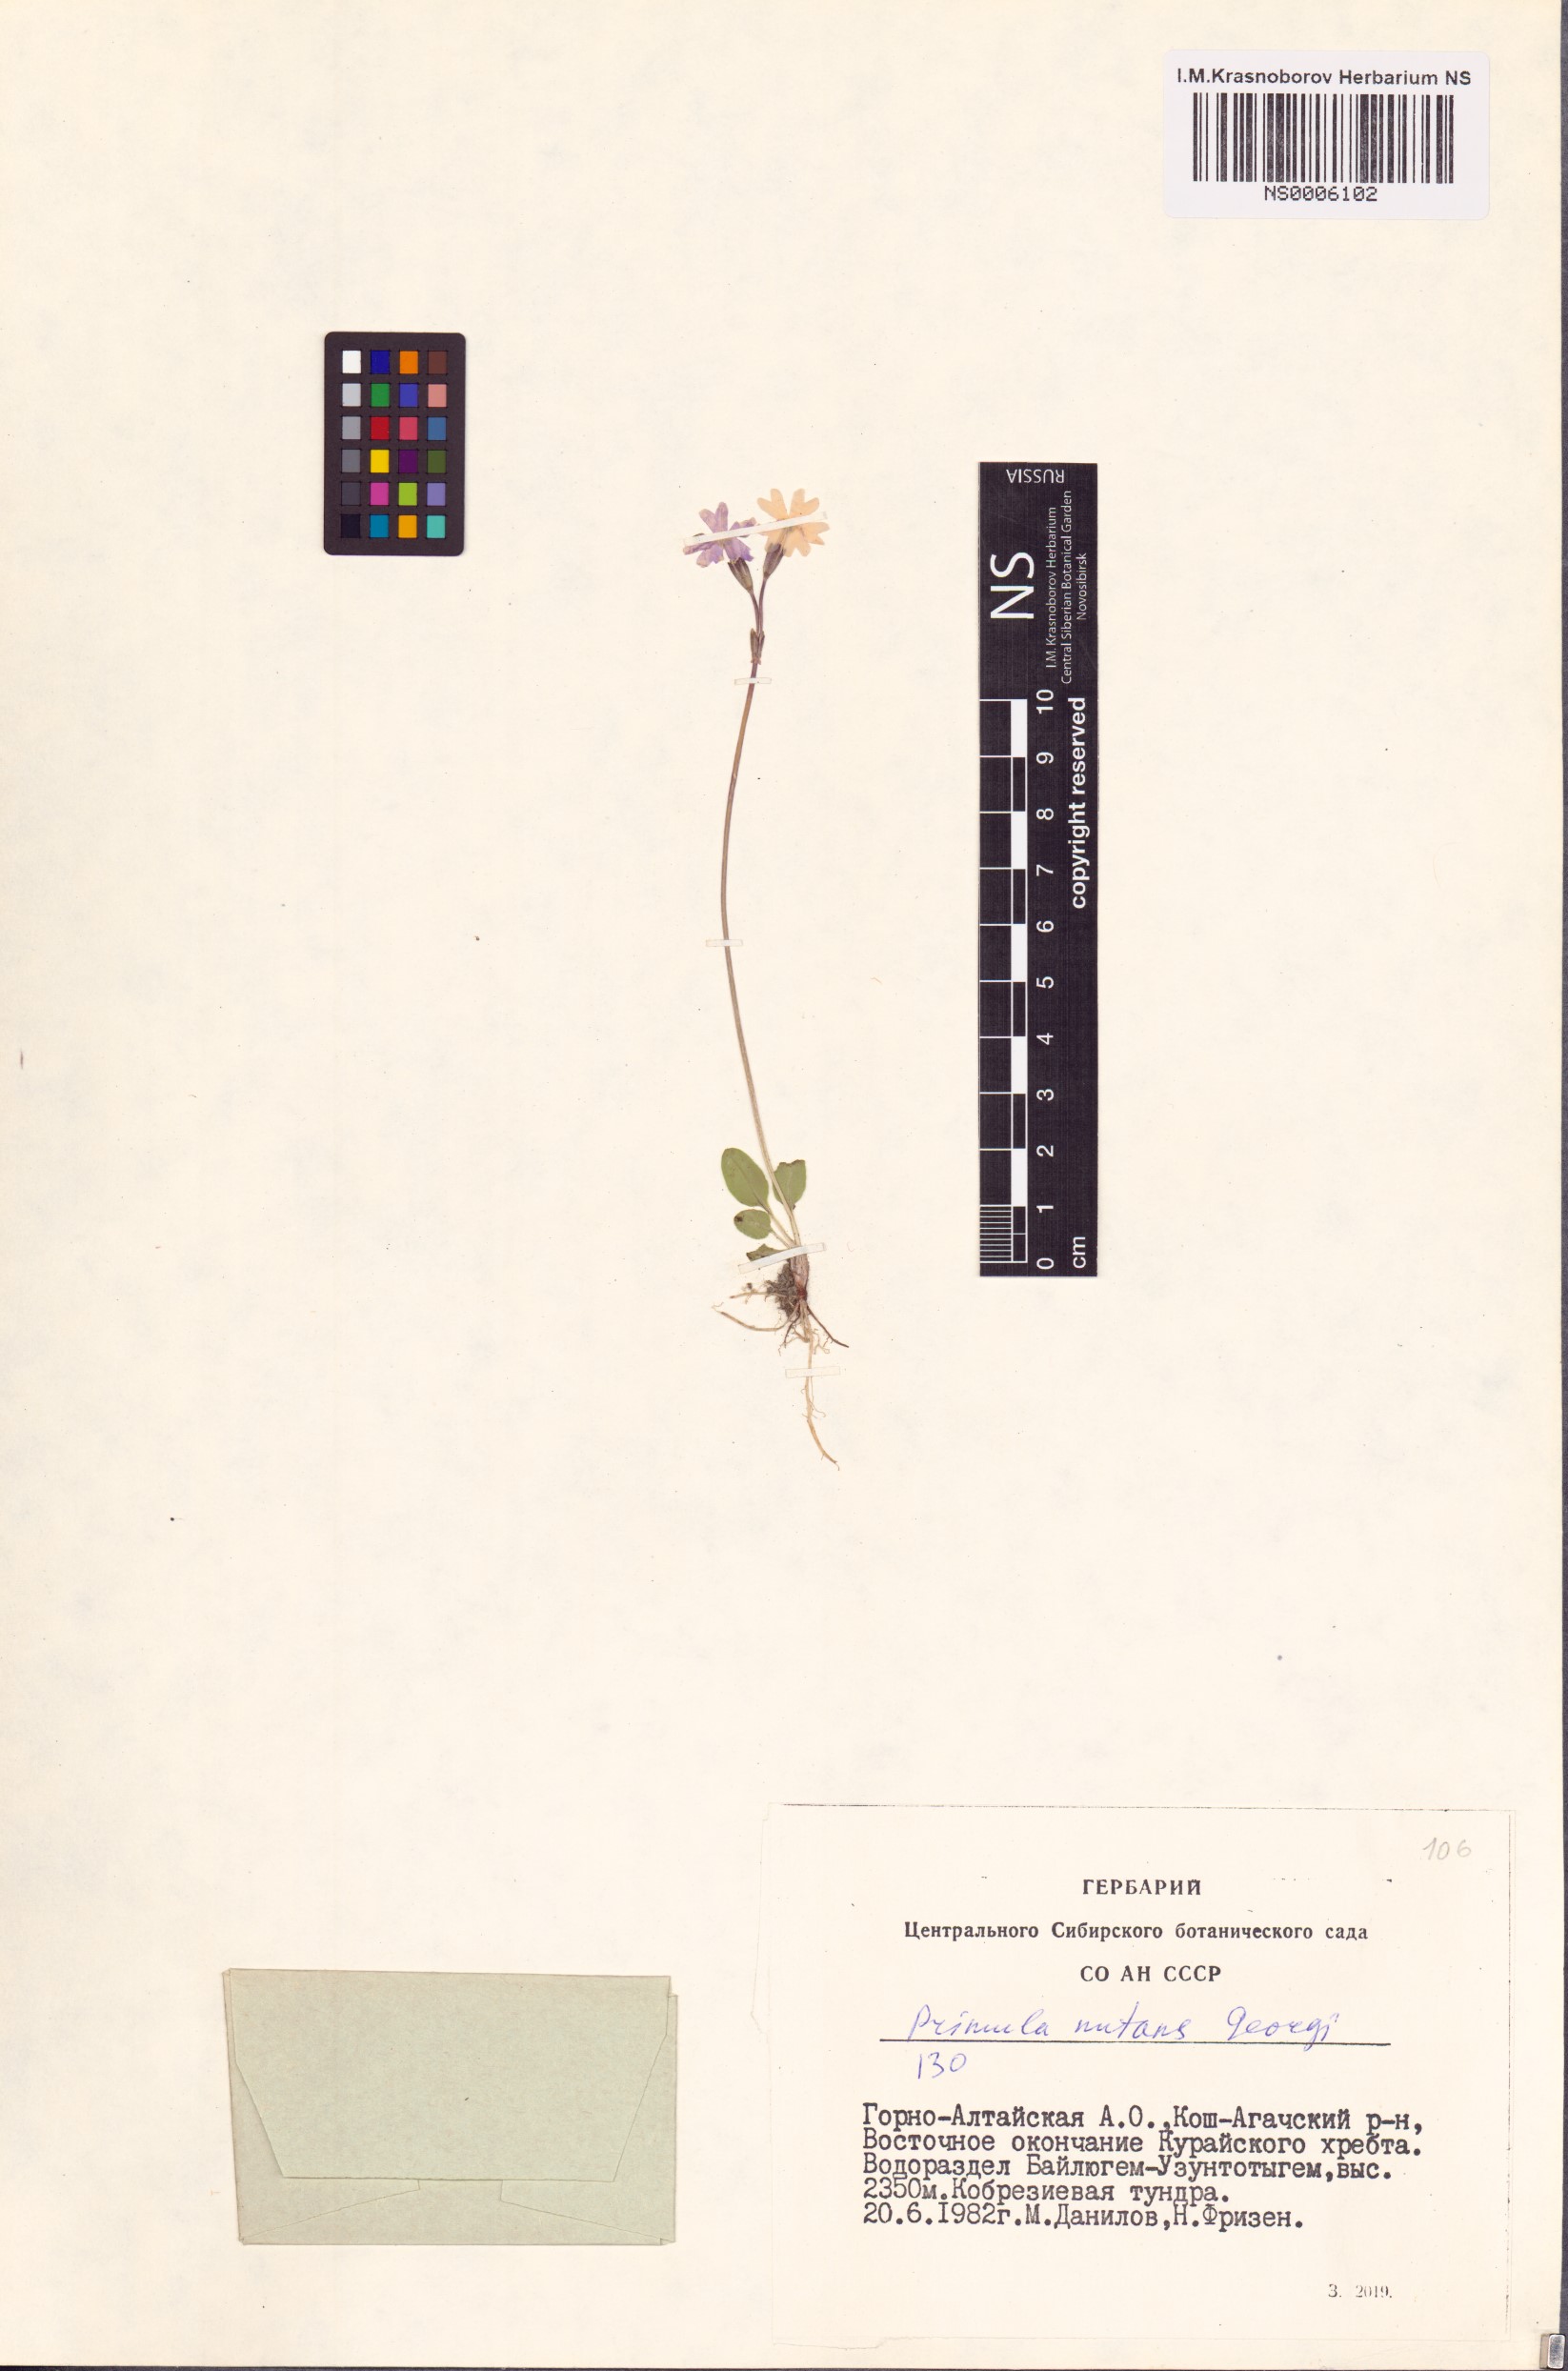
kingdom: Plantae
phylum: Tracheophyta
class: Magnoliopsida
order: Ericales
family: Primulaceae
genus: Primula
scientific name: Primula nutans
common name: Siberian primrose
